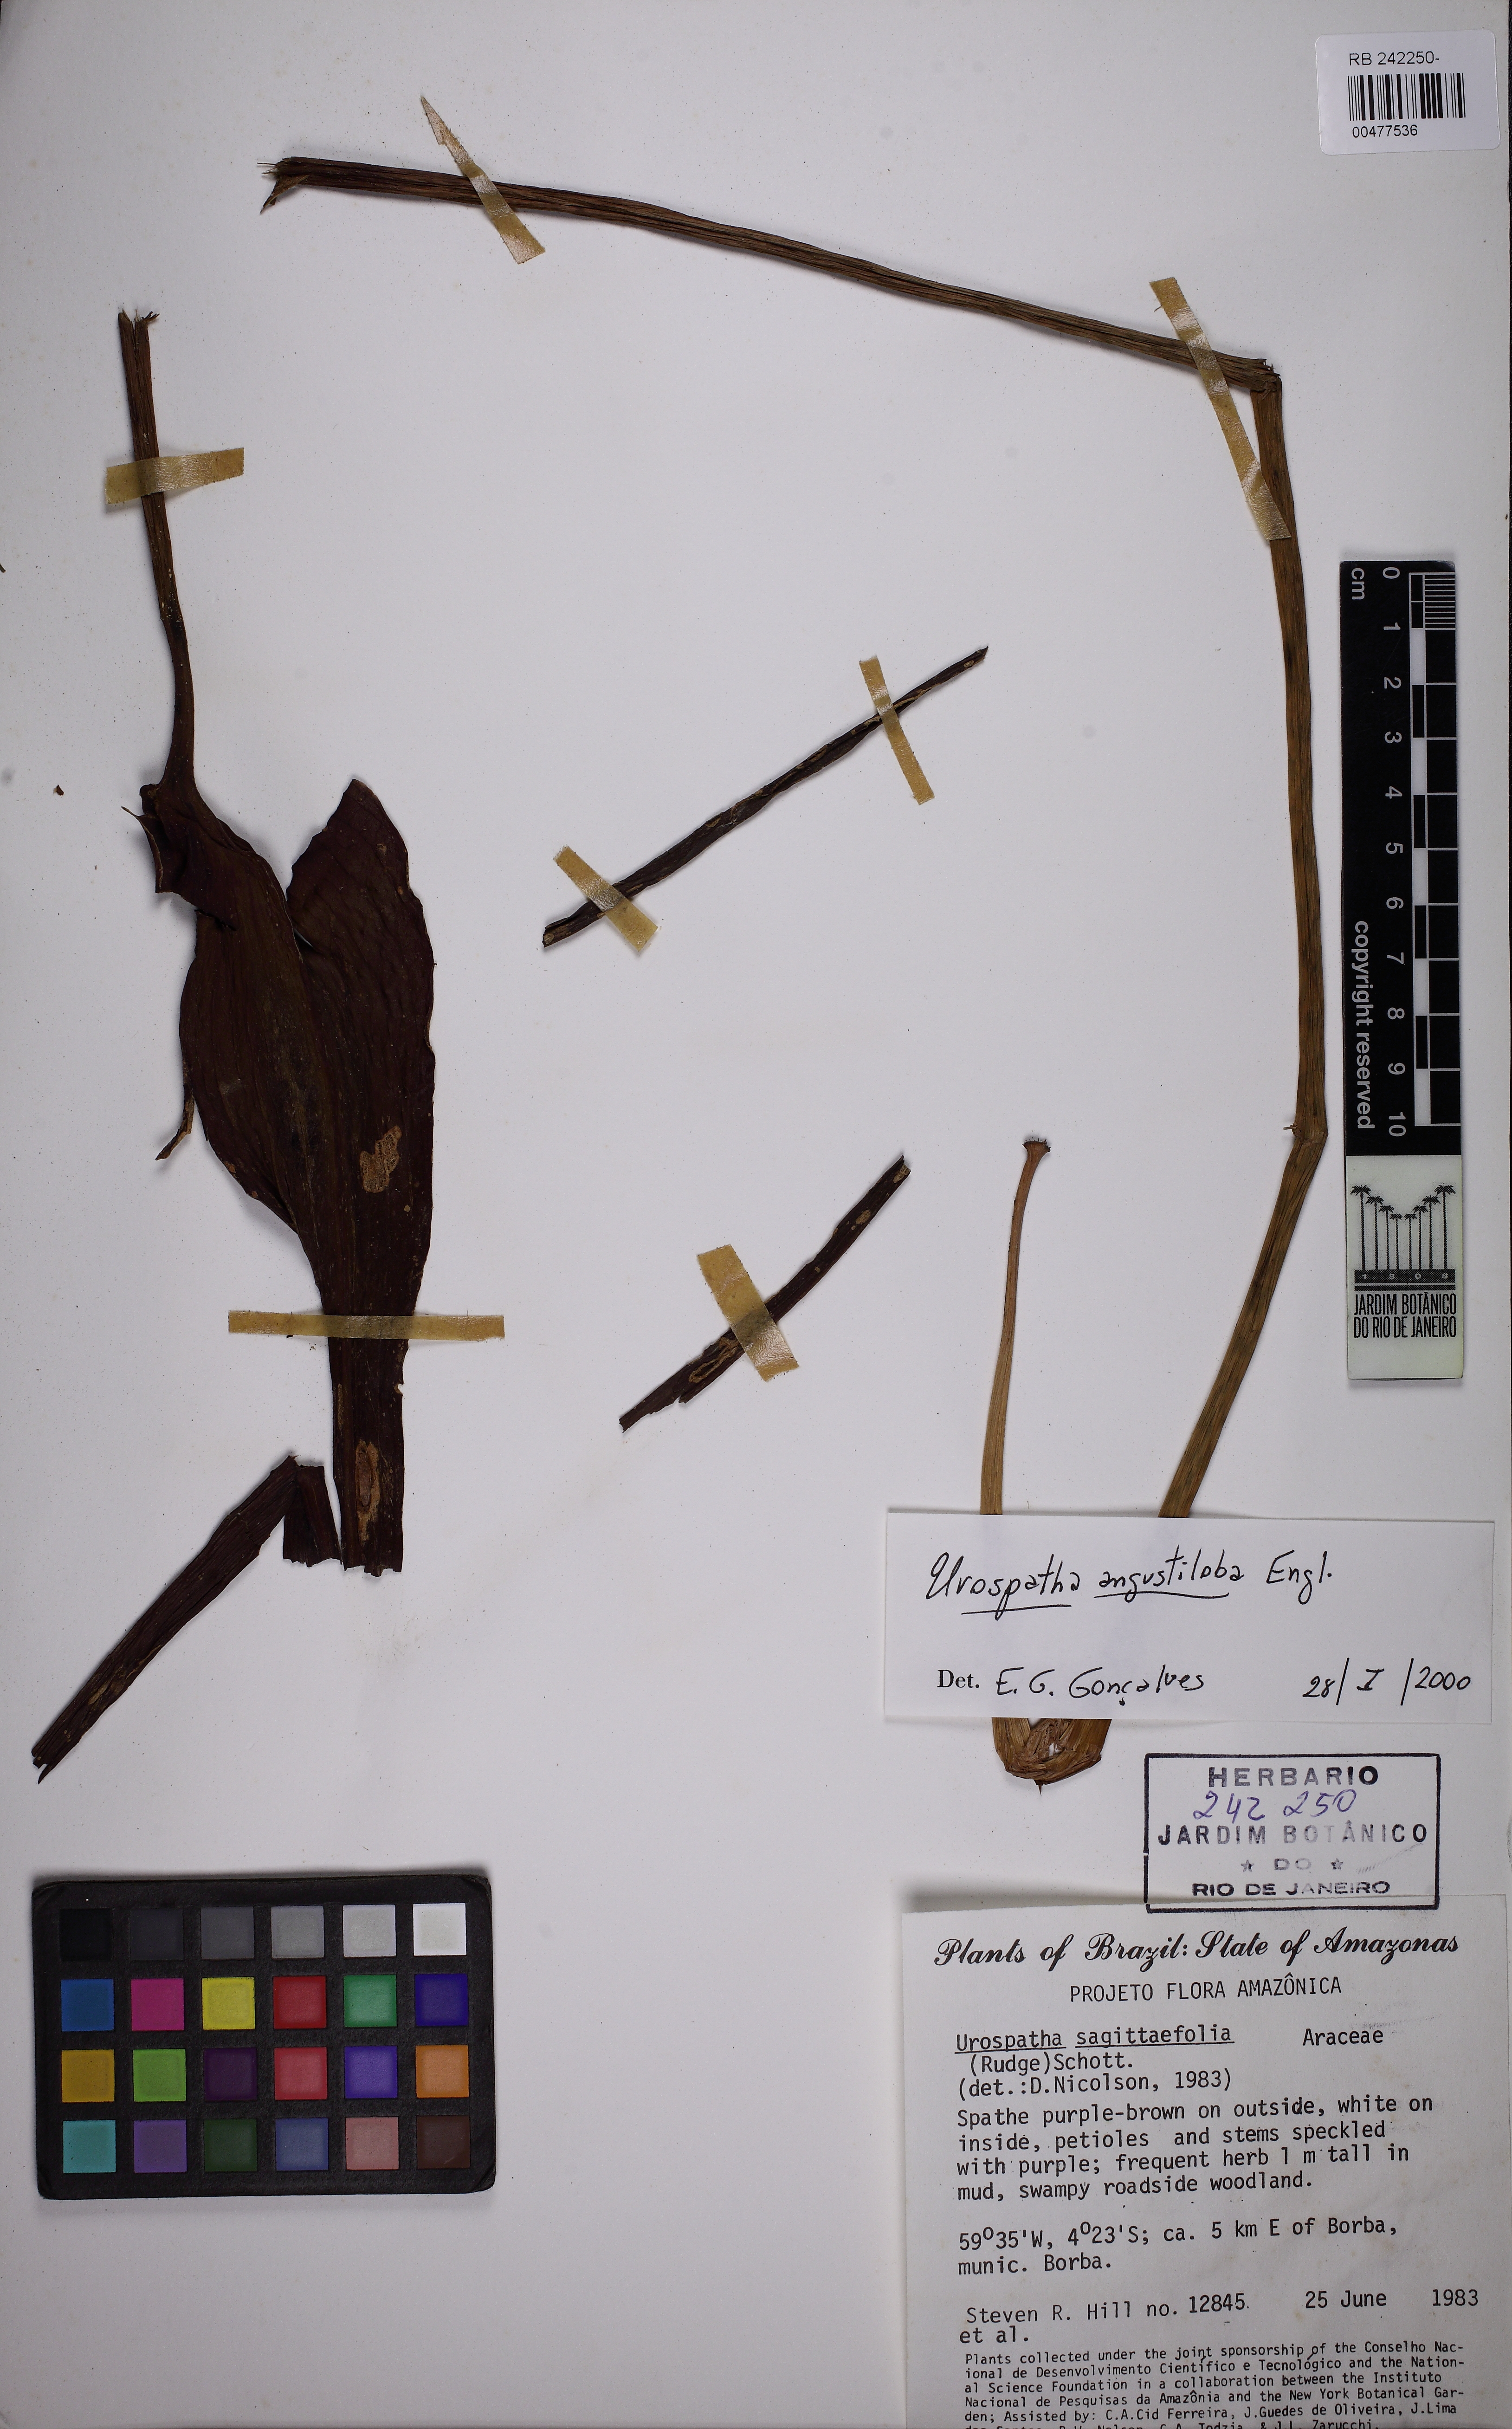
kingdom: Plantae
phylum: Tracheophyta
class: Liliopsida
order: Alismatales
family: Araceae
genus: Urospatha
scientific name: Urospatha sagittifolia
